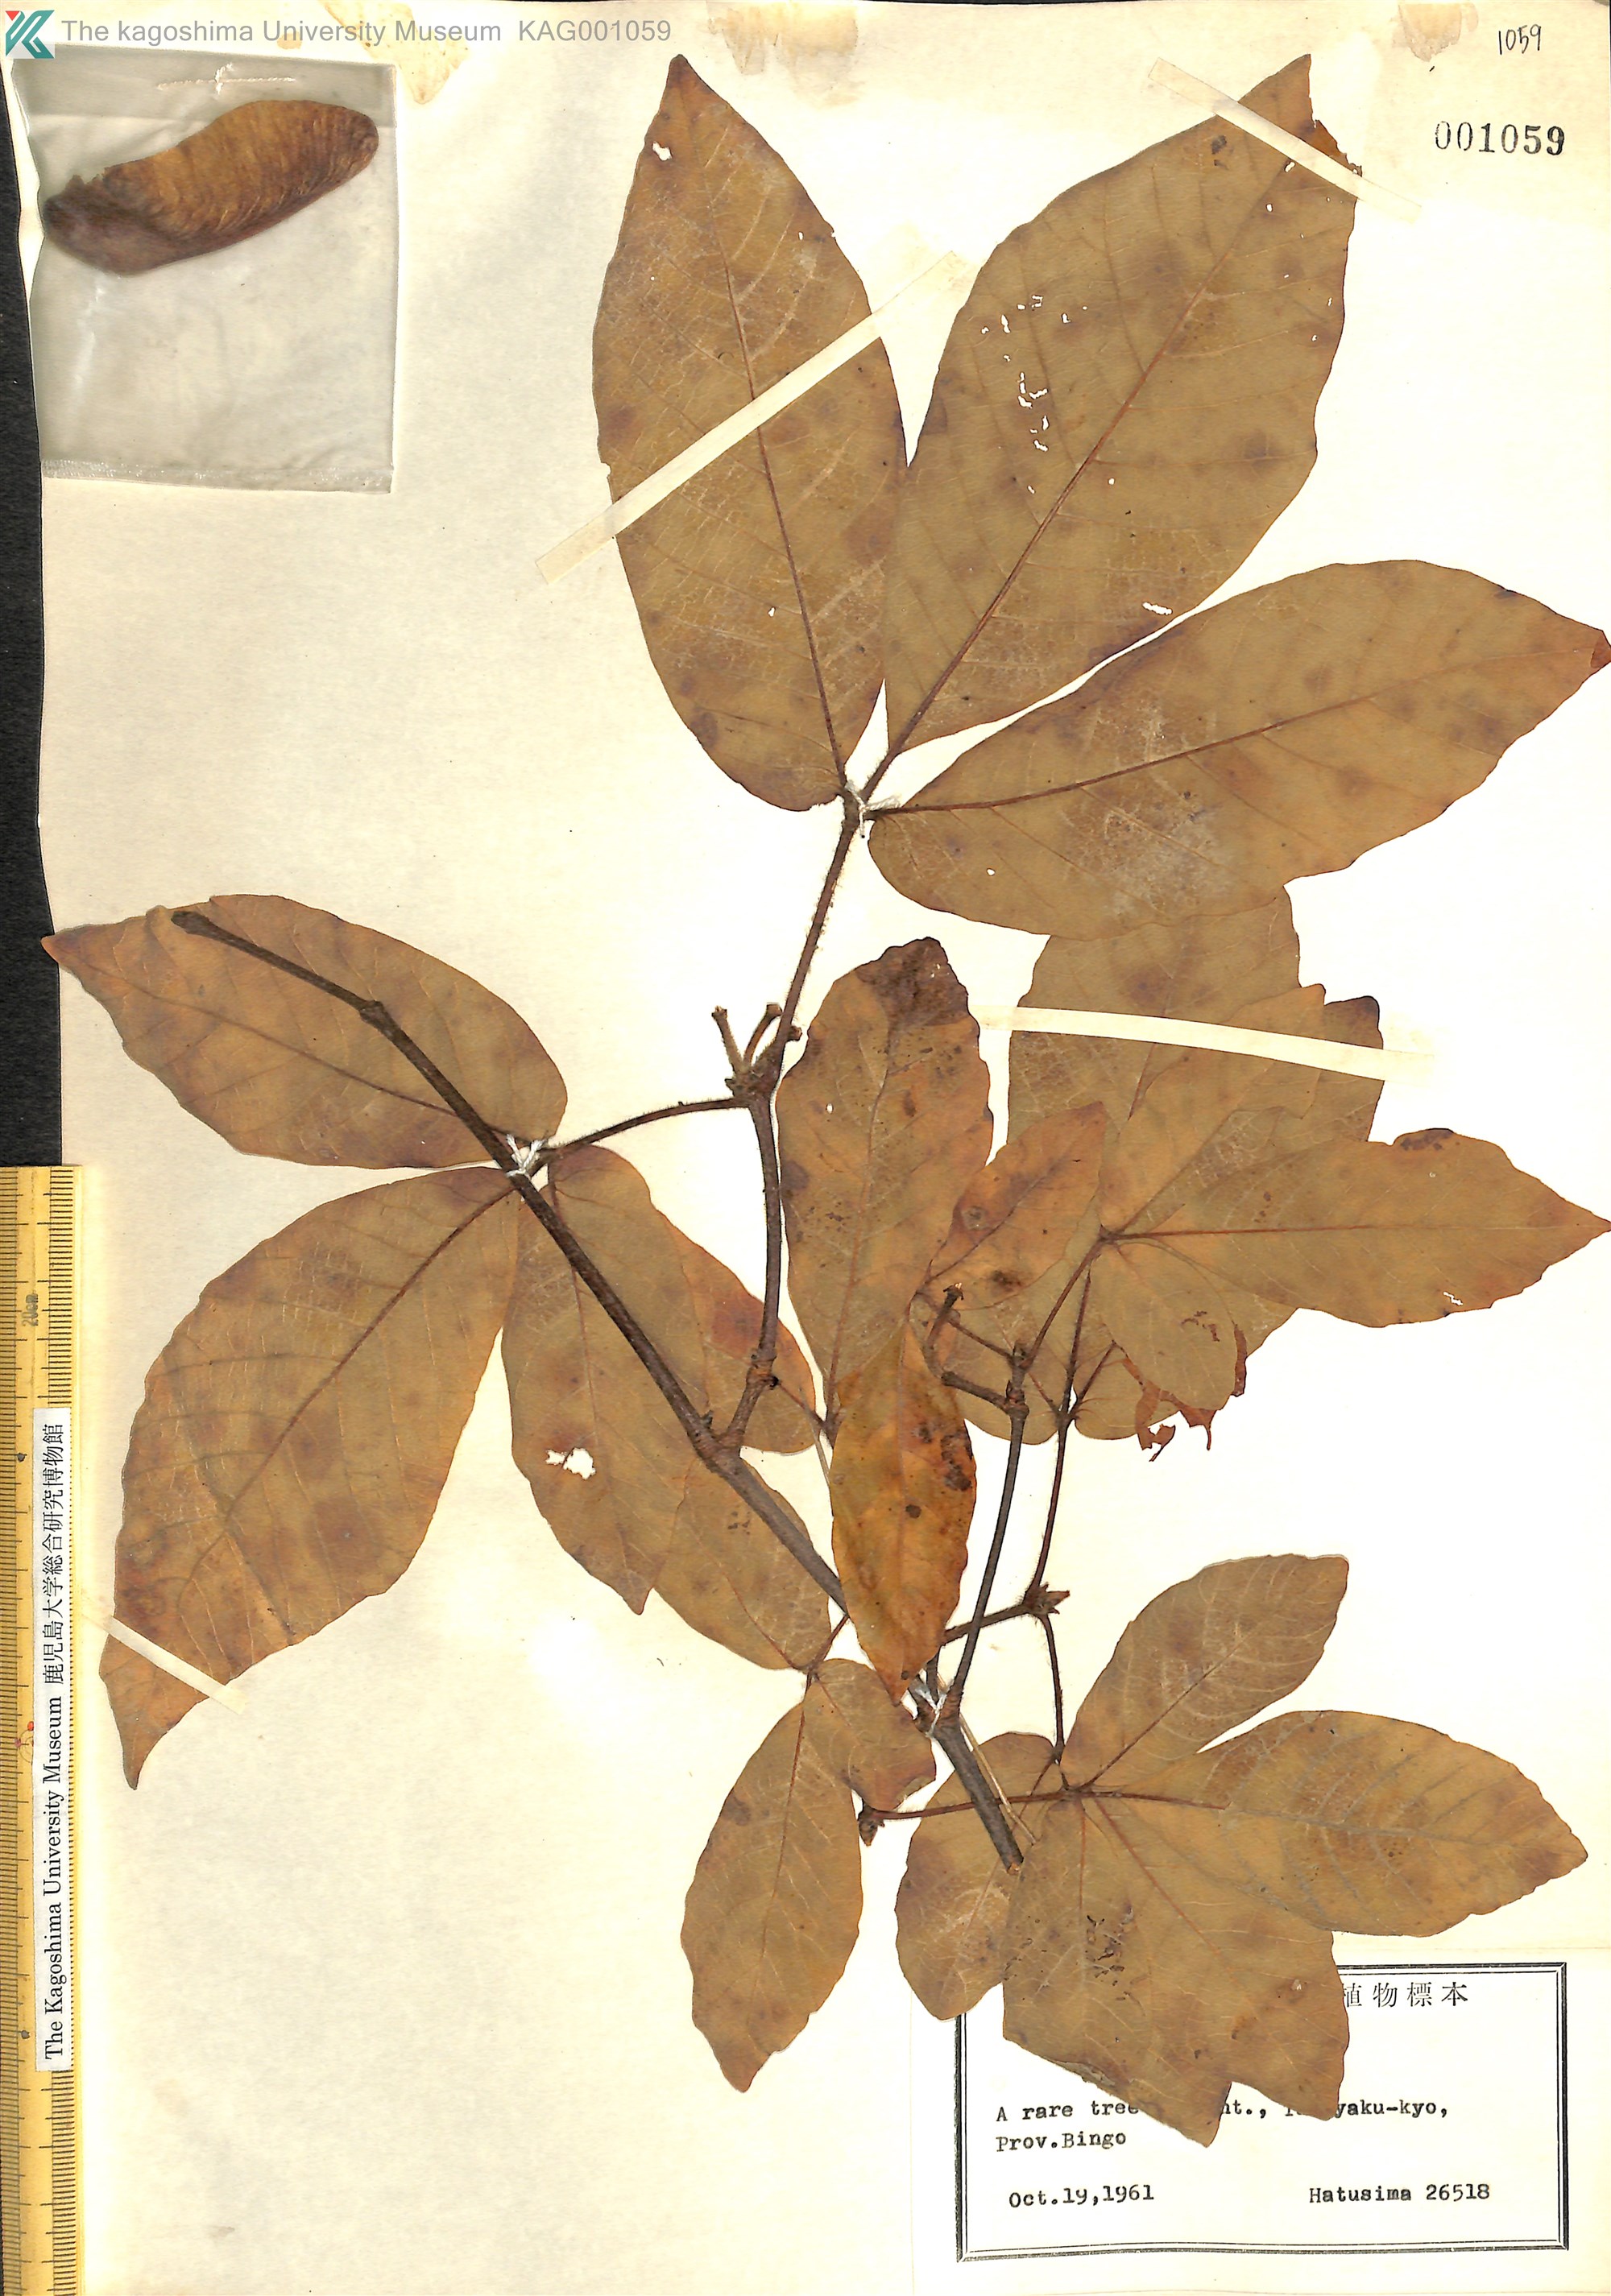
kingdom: Plantae
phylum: Tracheophyta
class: Magnoliopsida
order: Sapindales
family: Sapindaceae
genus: Acer
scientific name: Acer maximowiczianum
